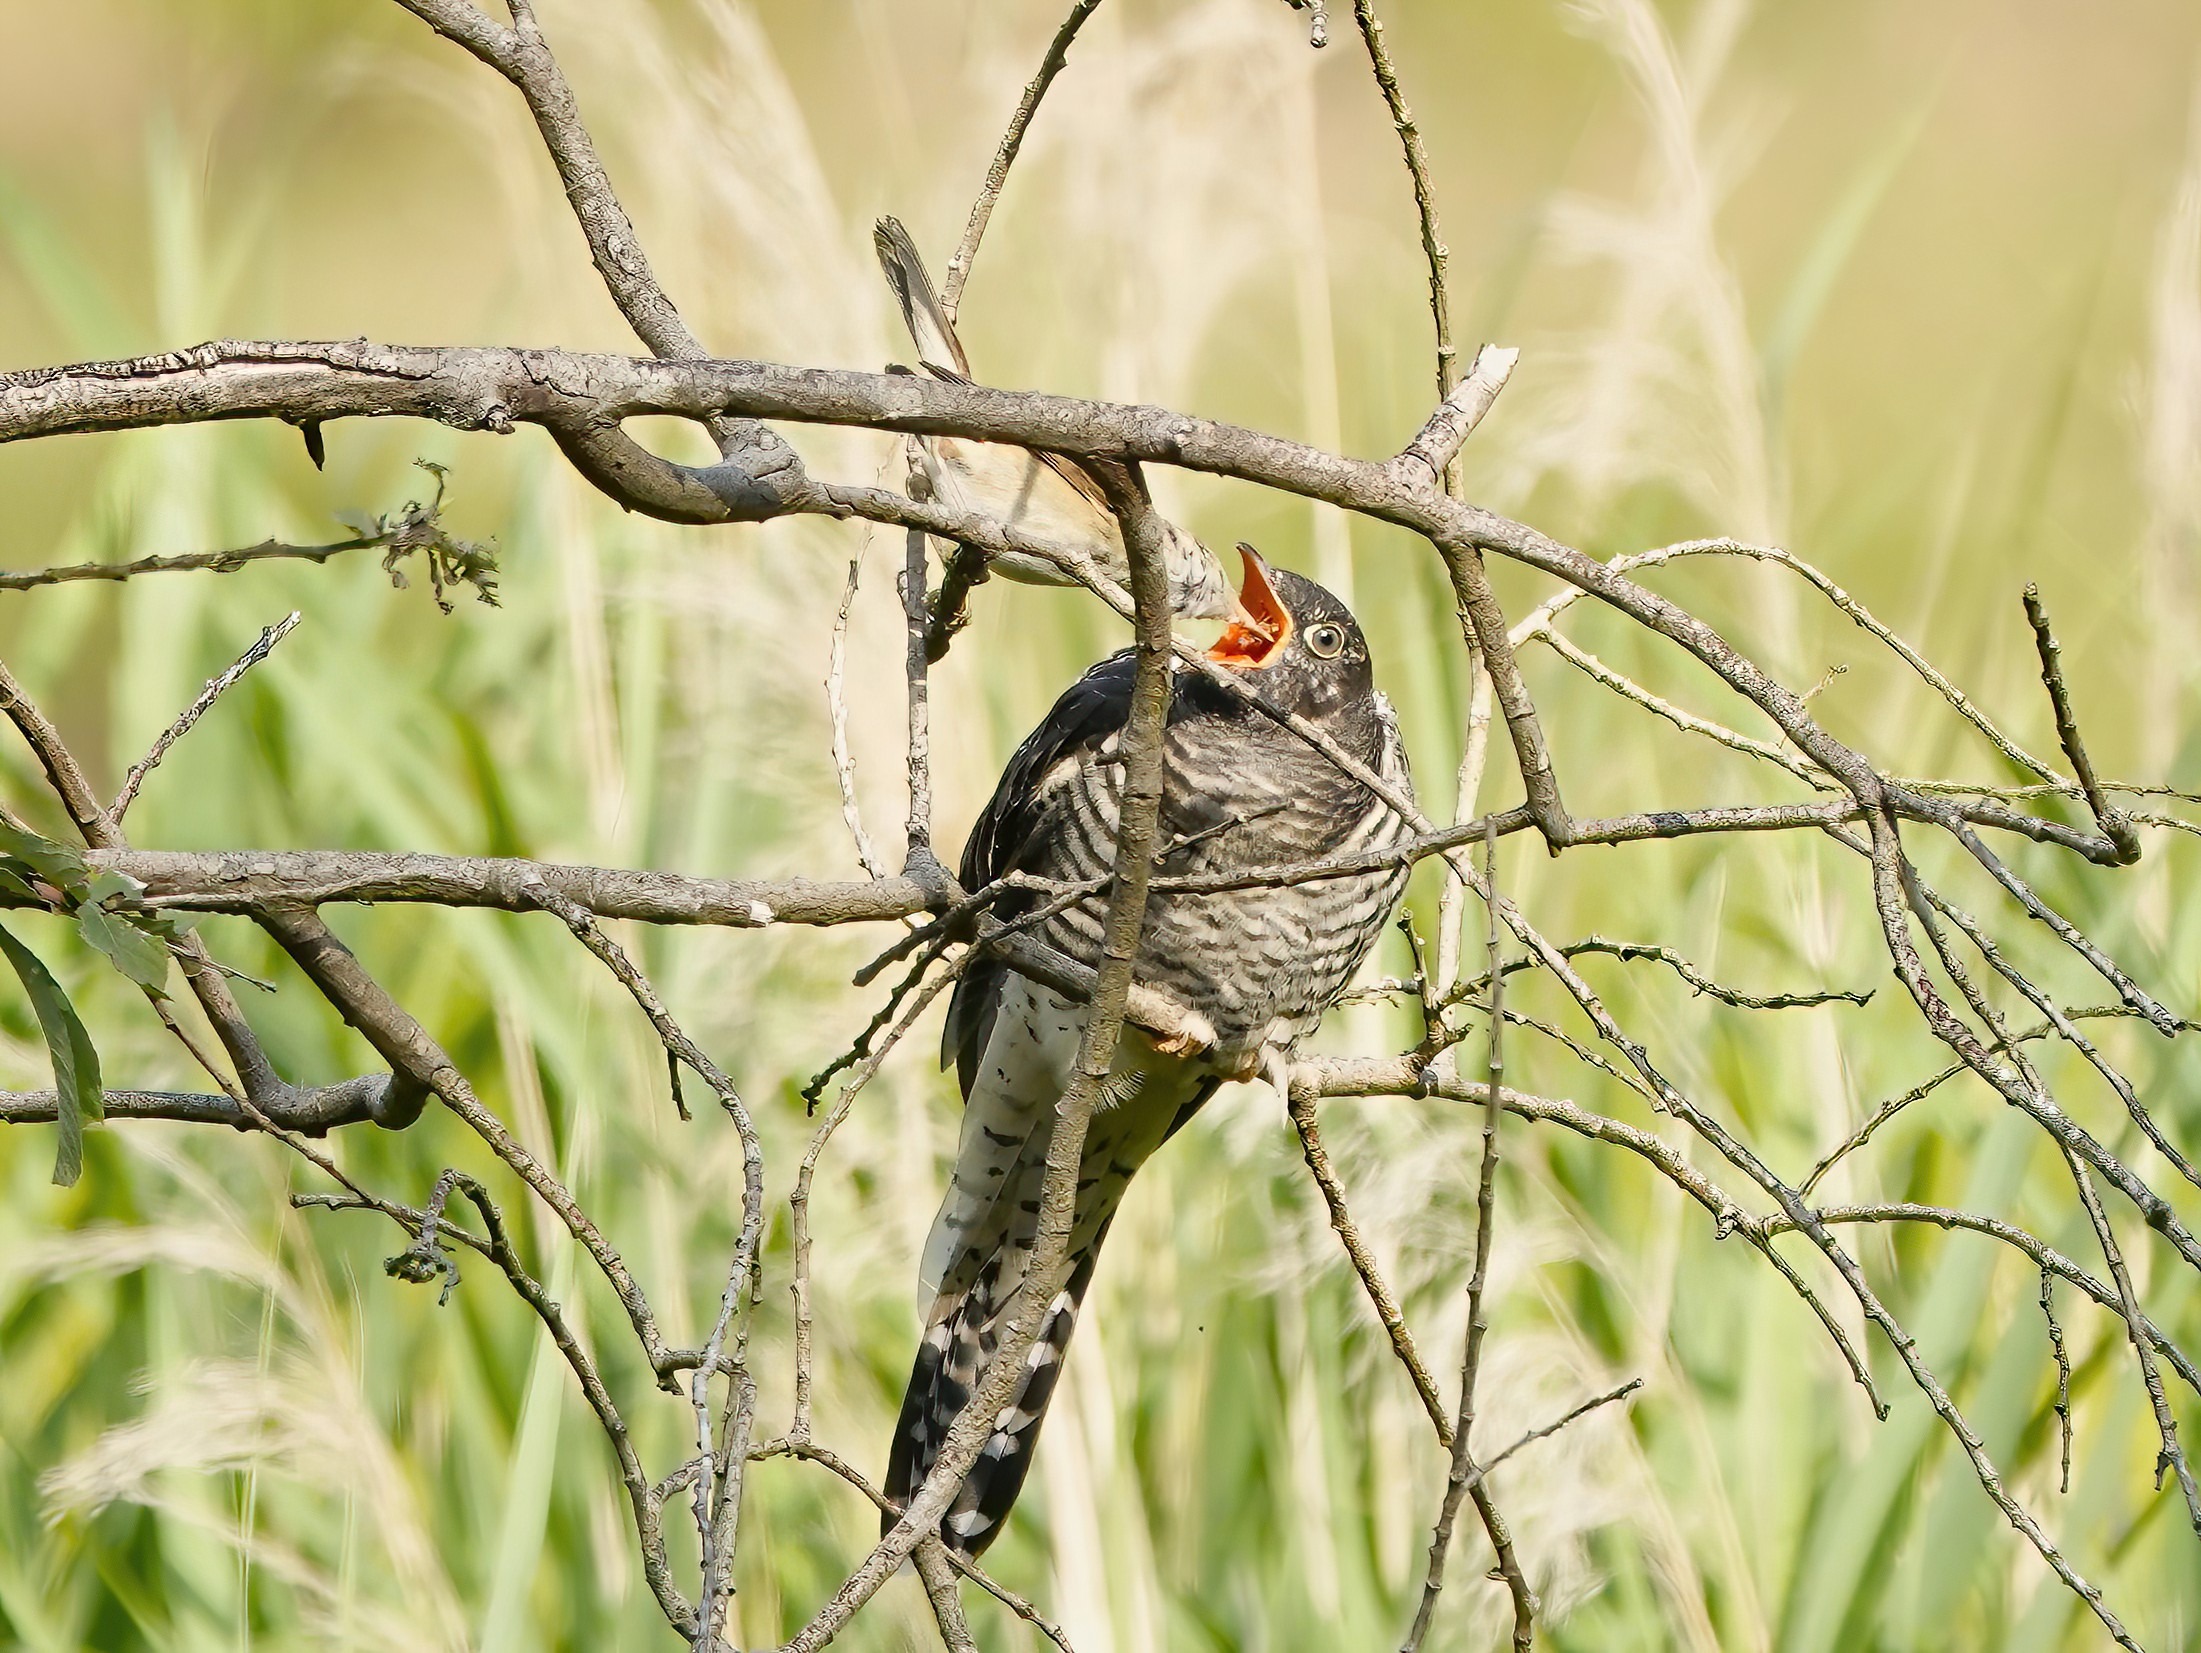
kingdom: Animalia
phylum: Chordata
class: Aves
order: Cuculiformes
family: Cuculidae
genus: Cuculus
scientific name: Cuculus canorus
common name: Gøg
